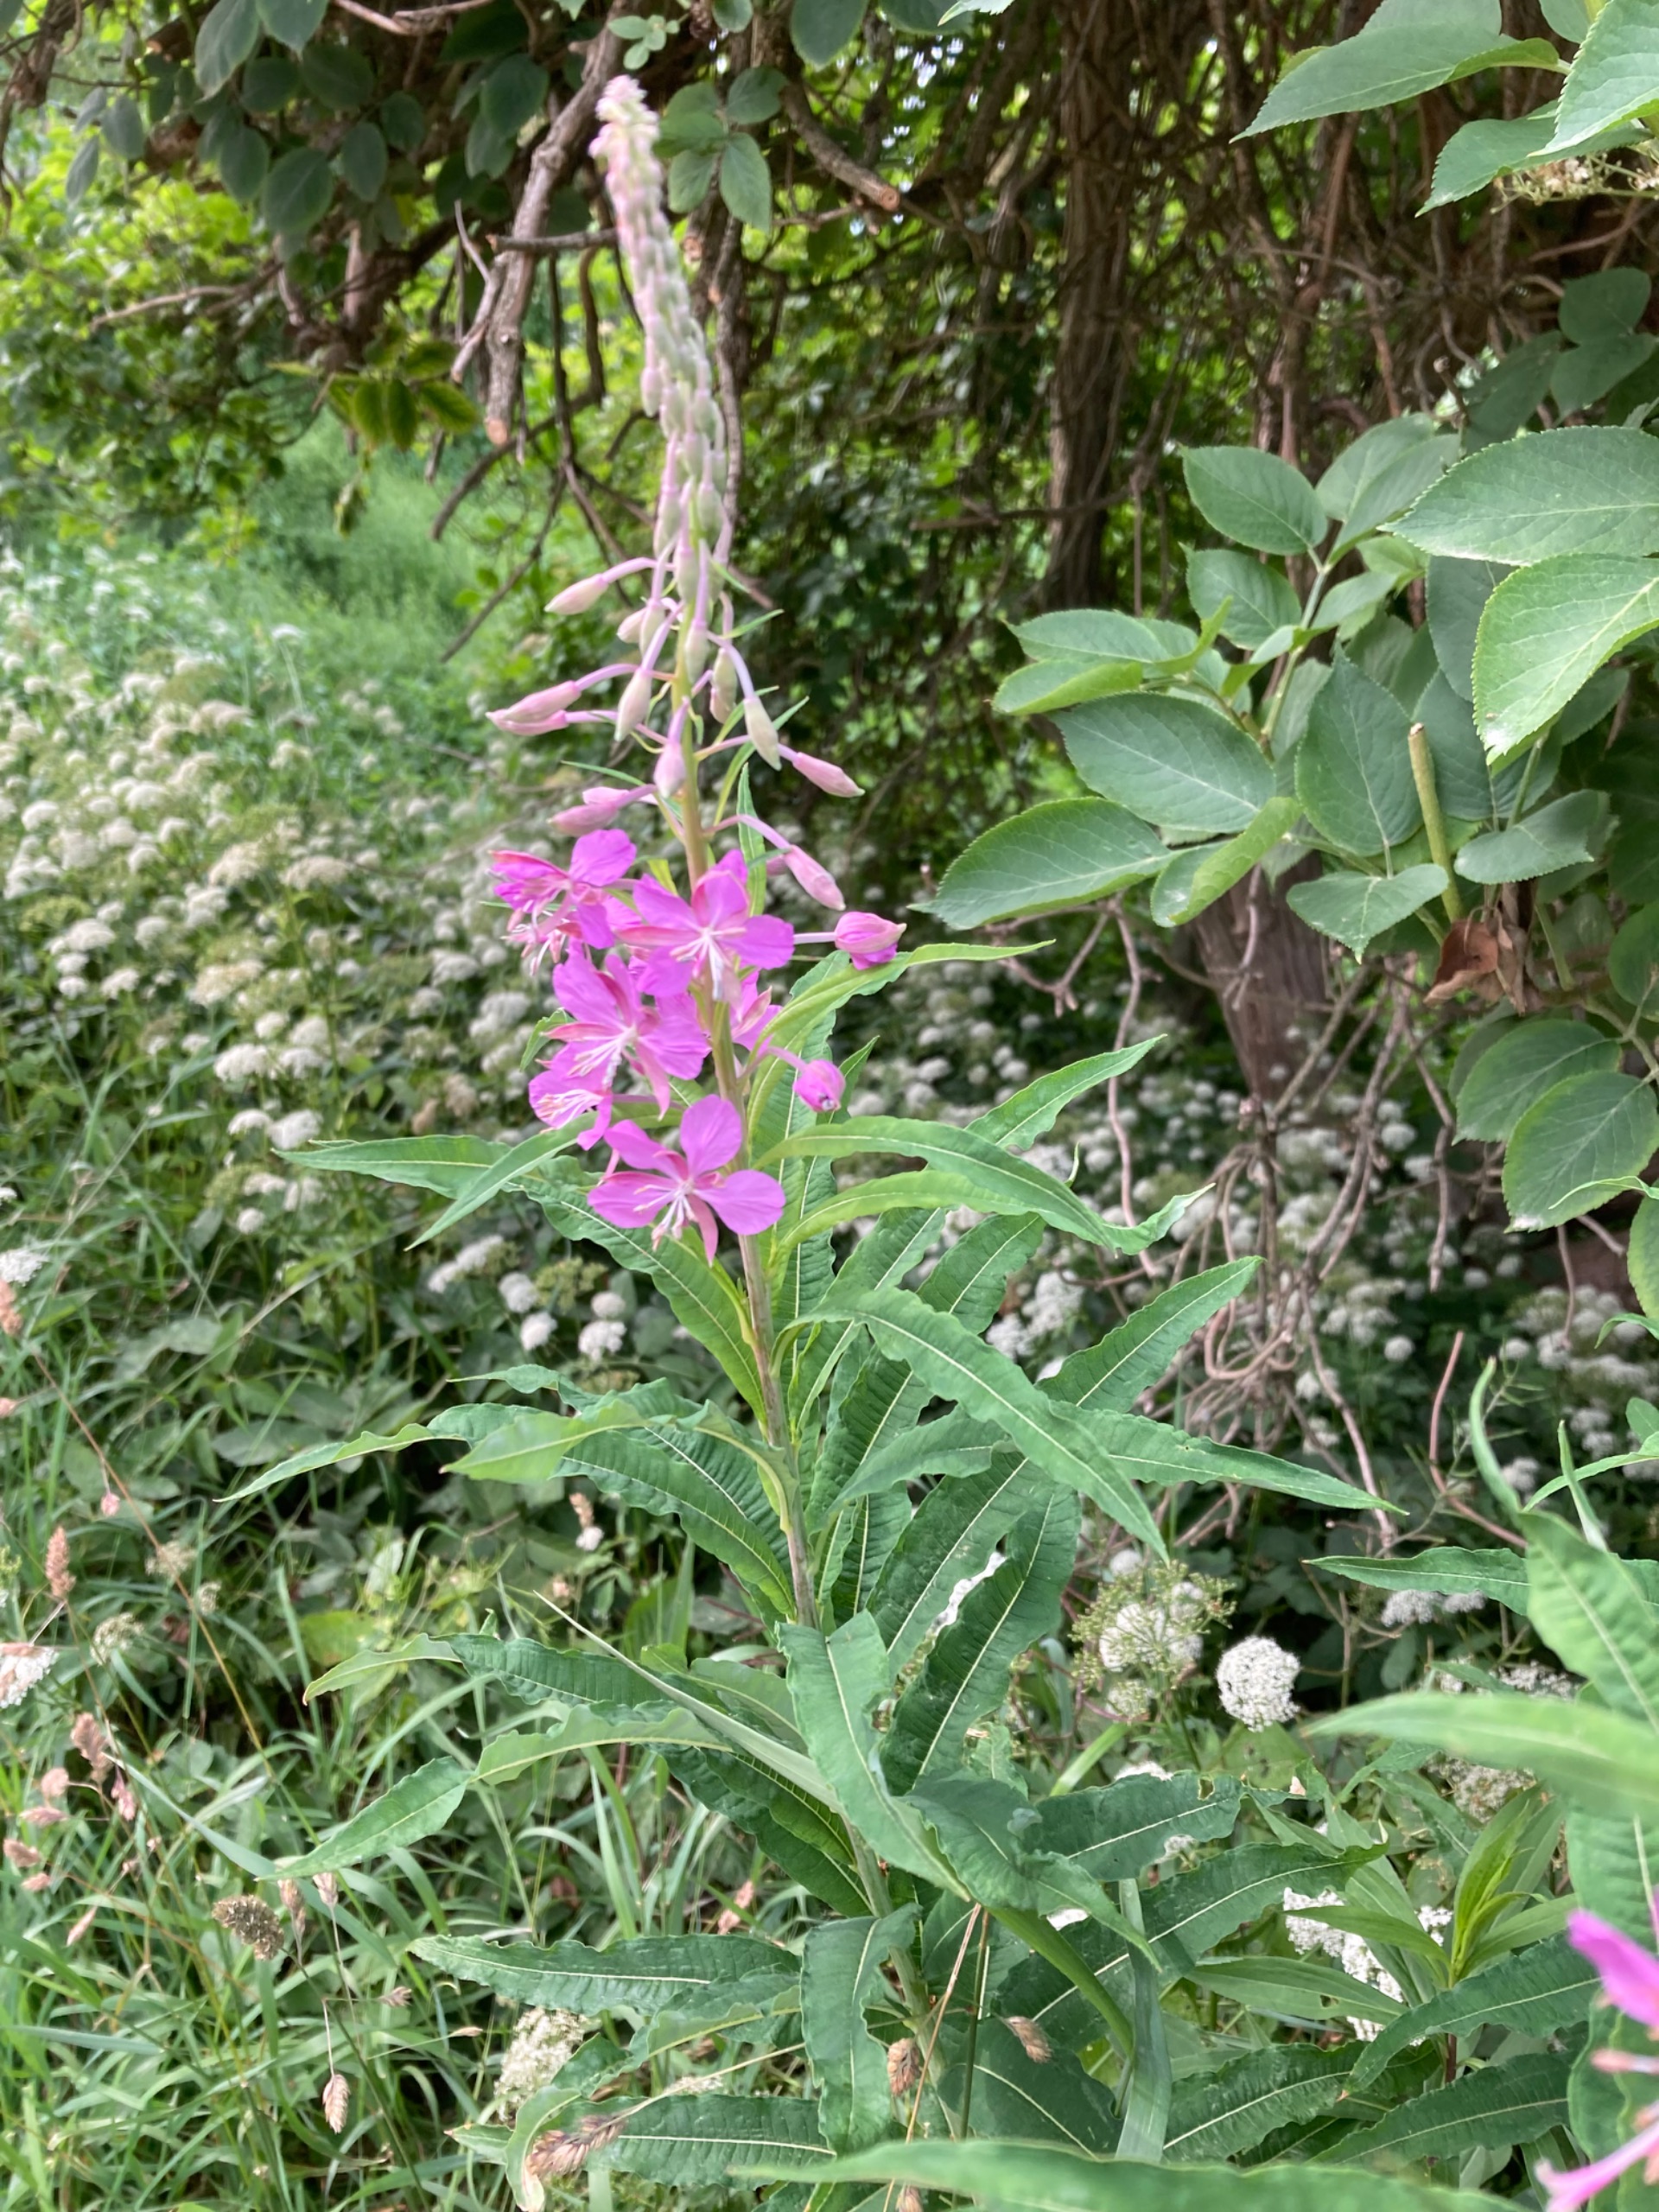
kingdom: Plantae
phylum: Tracheophyta
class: Magnoliopsida
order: Myrtales
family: Onagraceae
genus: Chamaenerion
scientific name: Chamaenerion angustifolium
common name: Gederams
